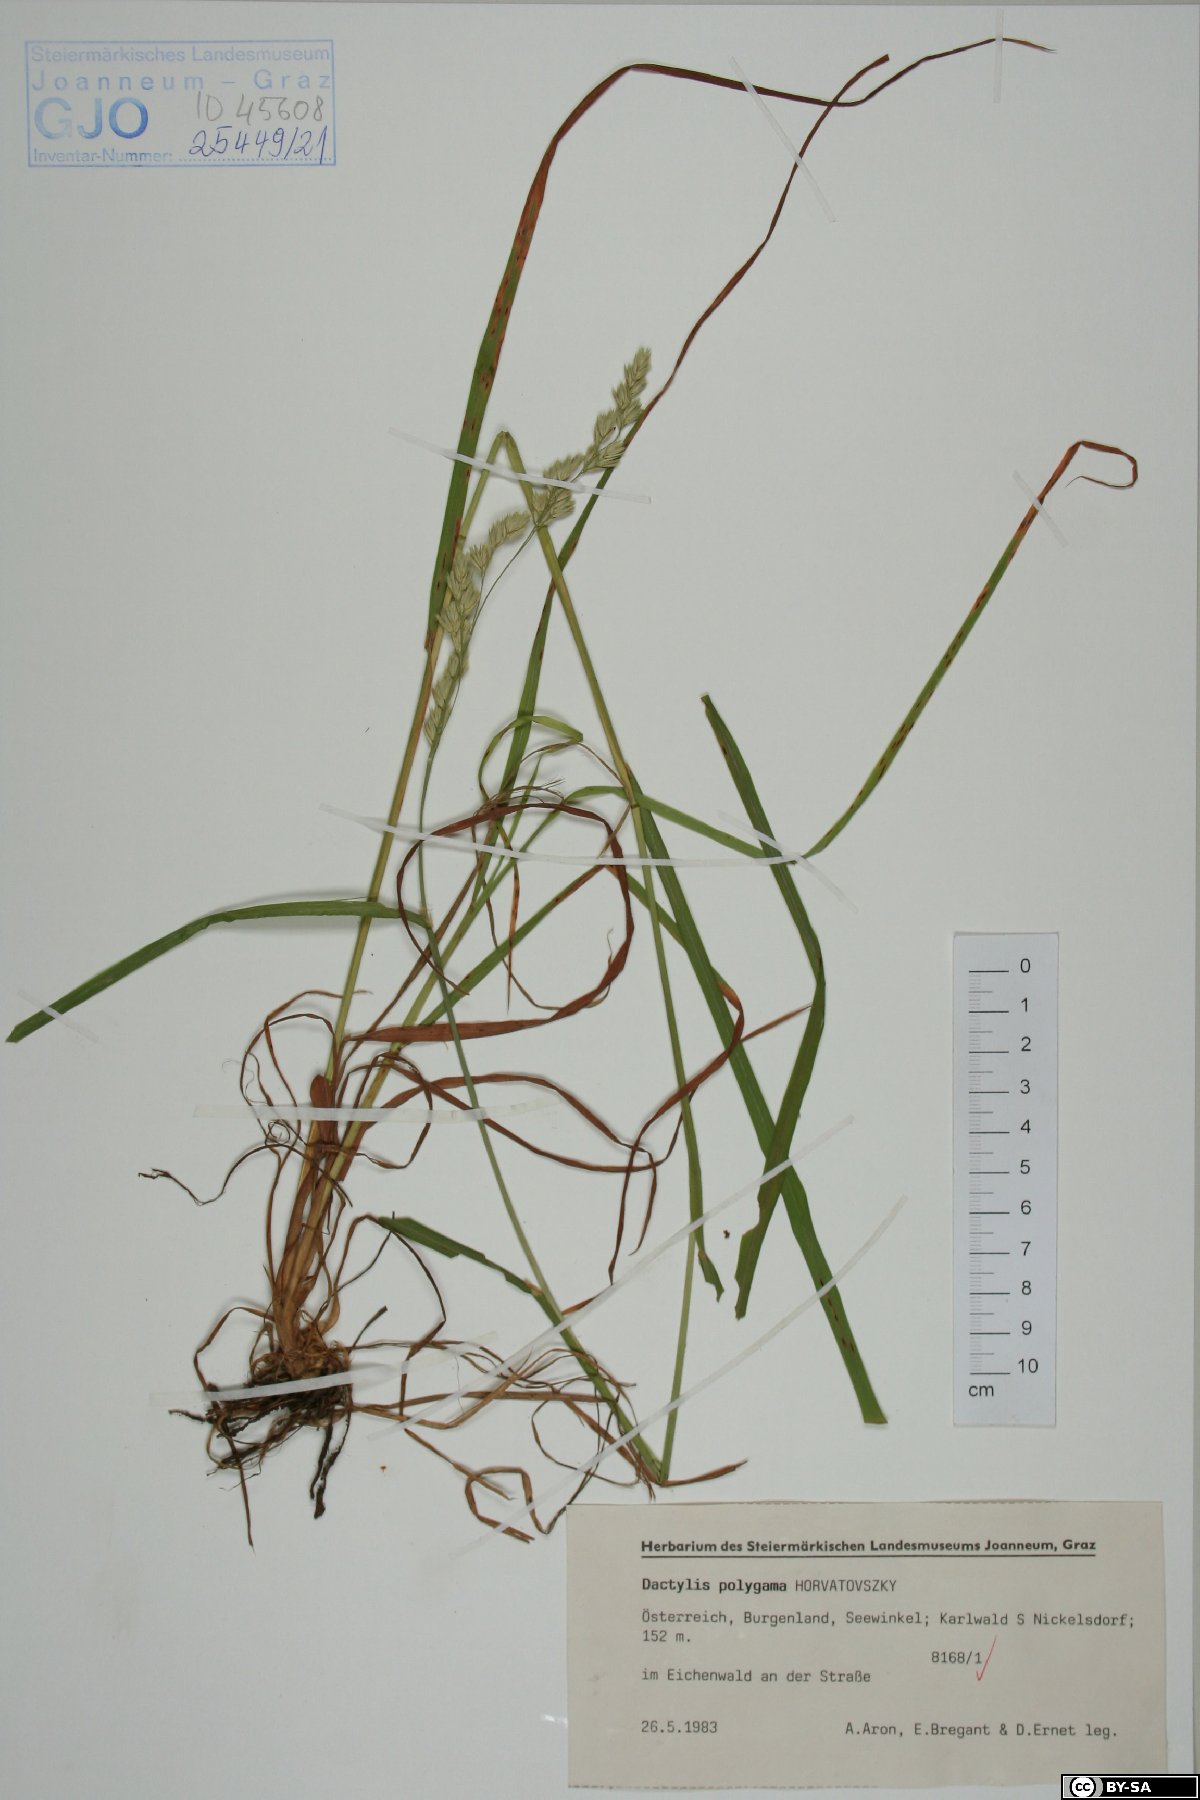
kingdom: Plantae
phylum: Tracheophyta
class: Liliopsida
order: Poales
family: Poaceae
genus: Dactylis
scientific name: Dactylis glomerata
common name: Orchardgrass
